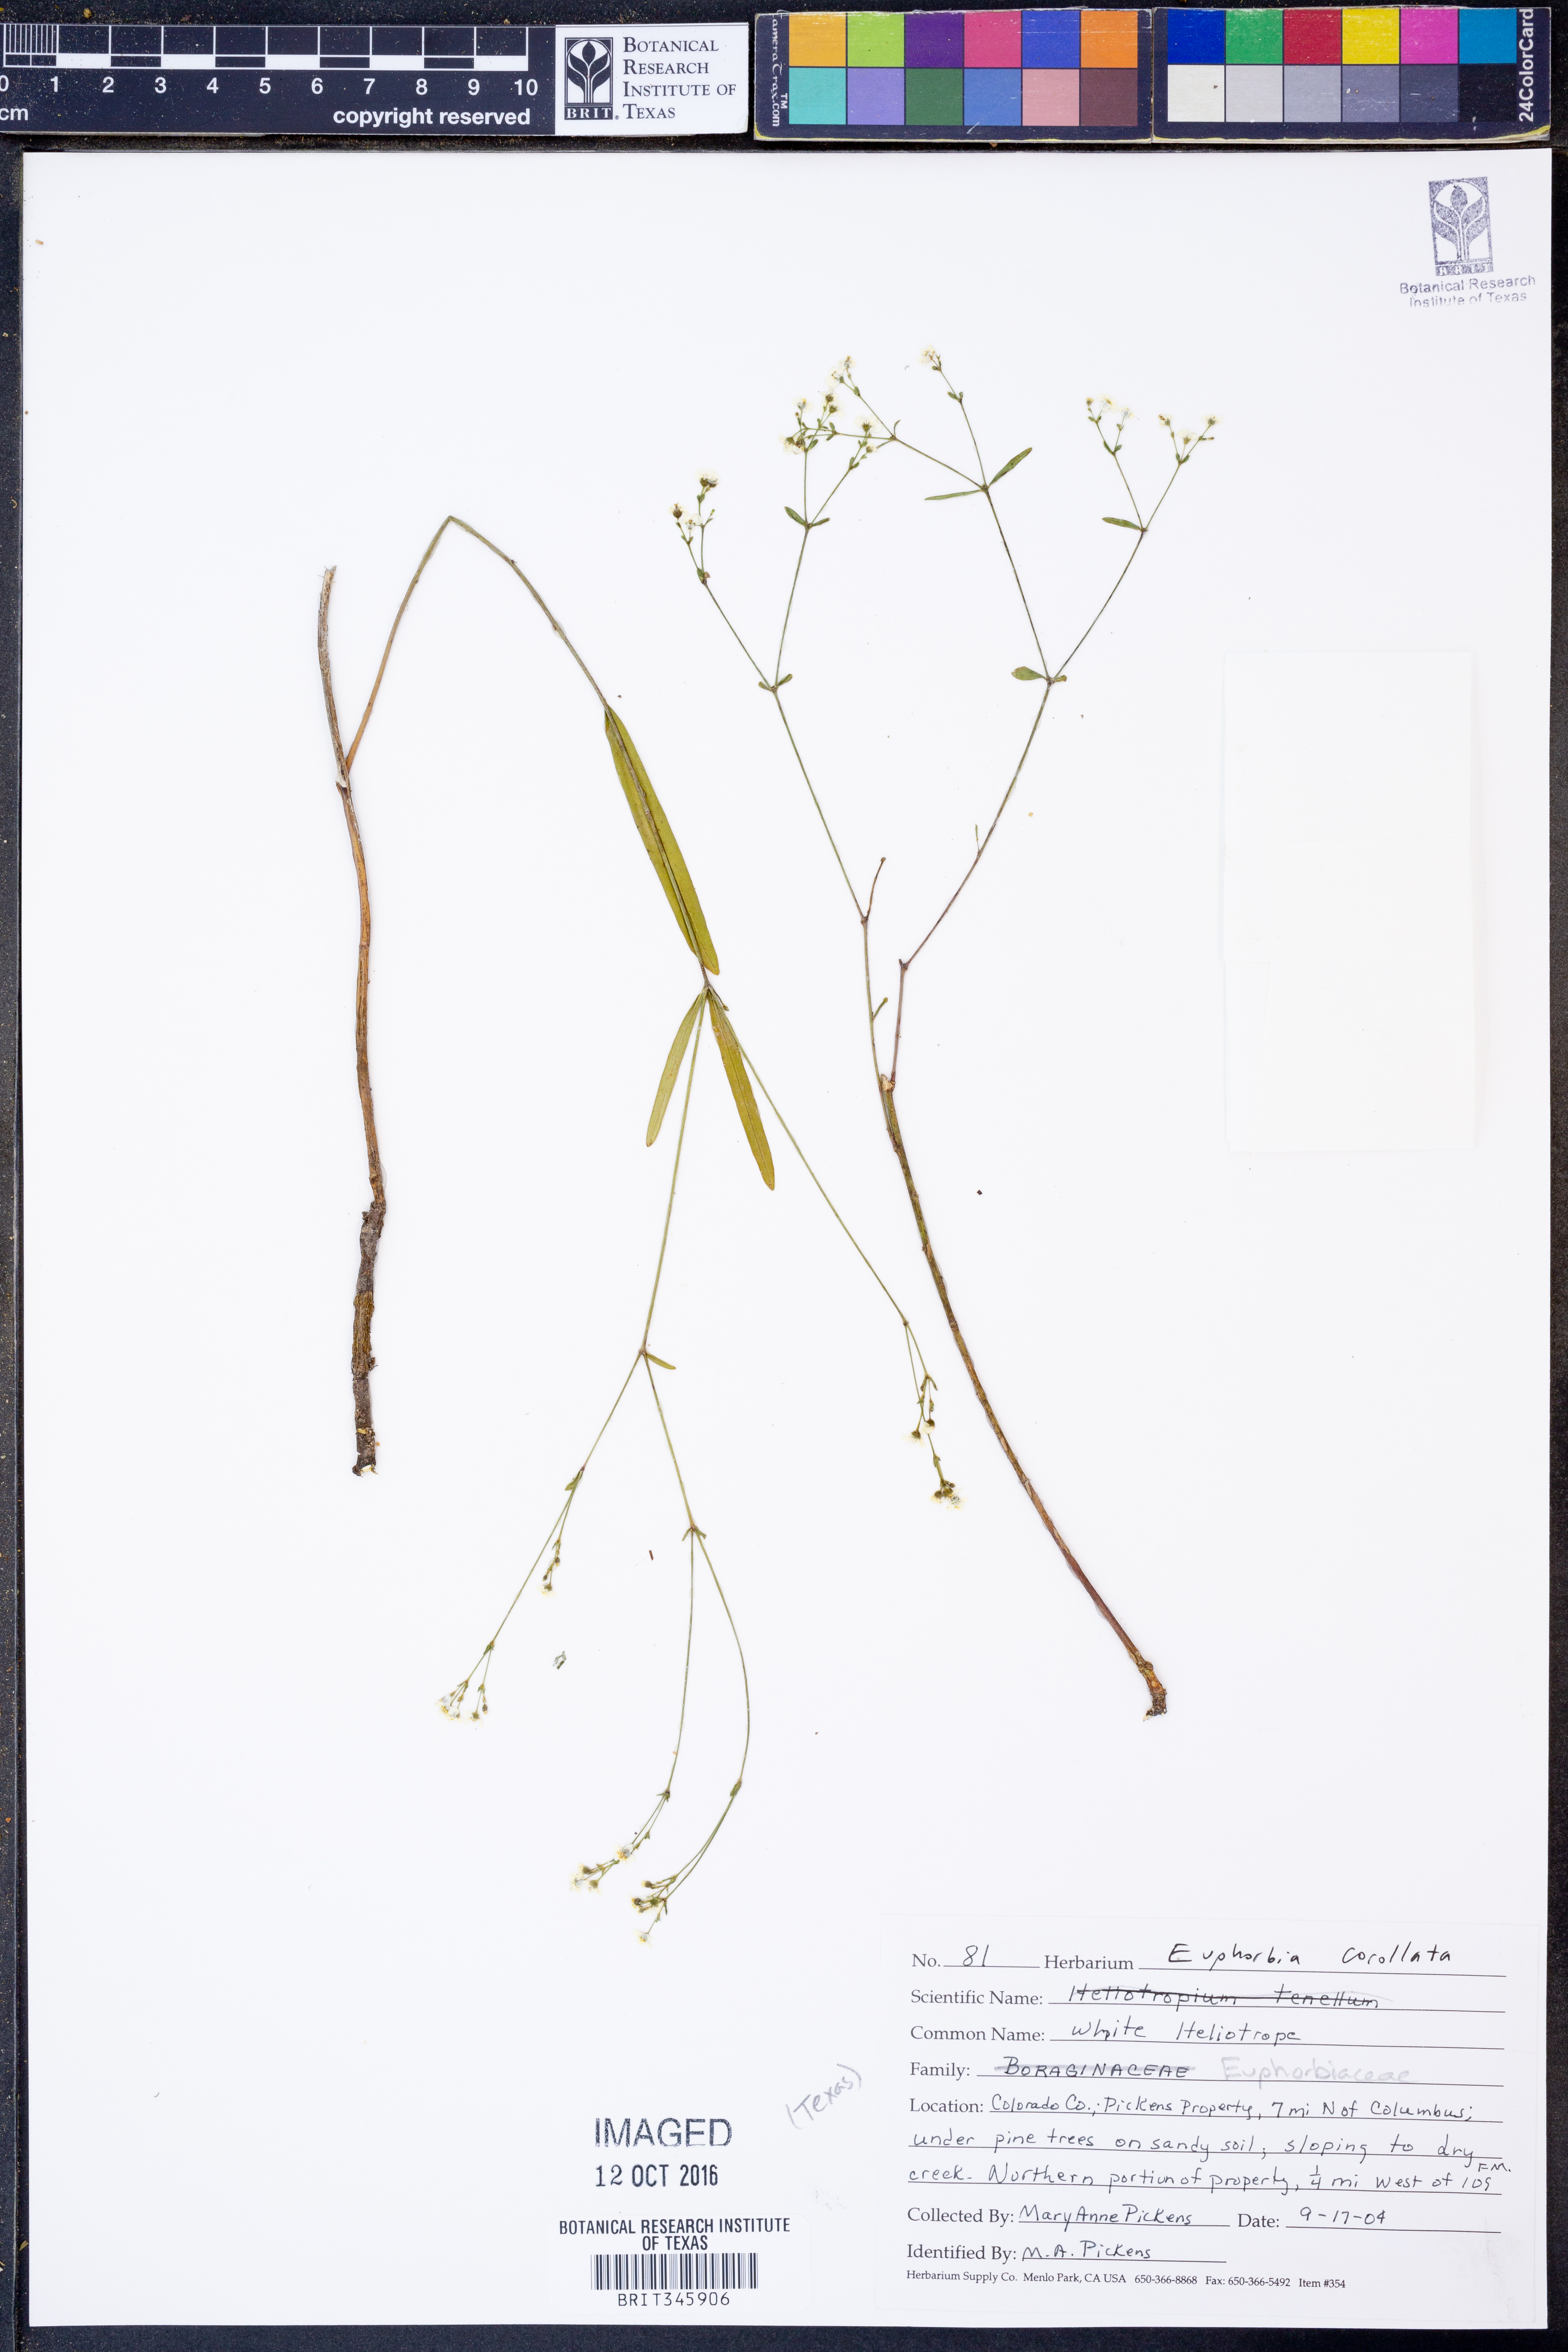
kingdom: Plantae
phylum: Tracheophyta
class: Magnoliopsida
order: Malpighiales
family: Euphorbiaceae
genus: Euphorbia
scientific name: Euphorbia corollata
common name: Flowering spurge
